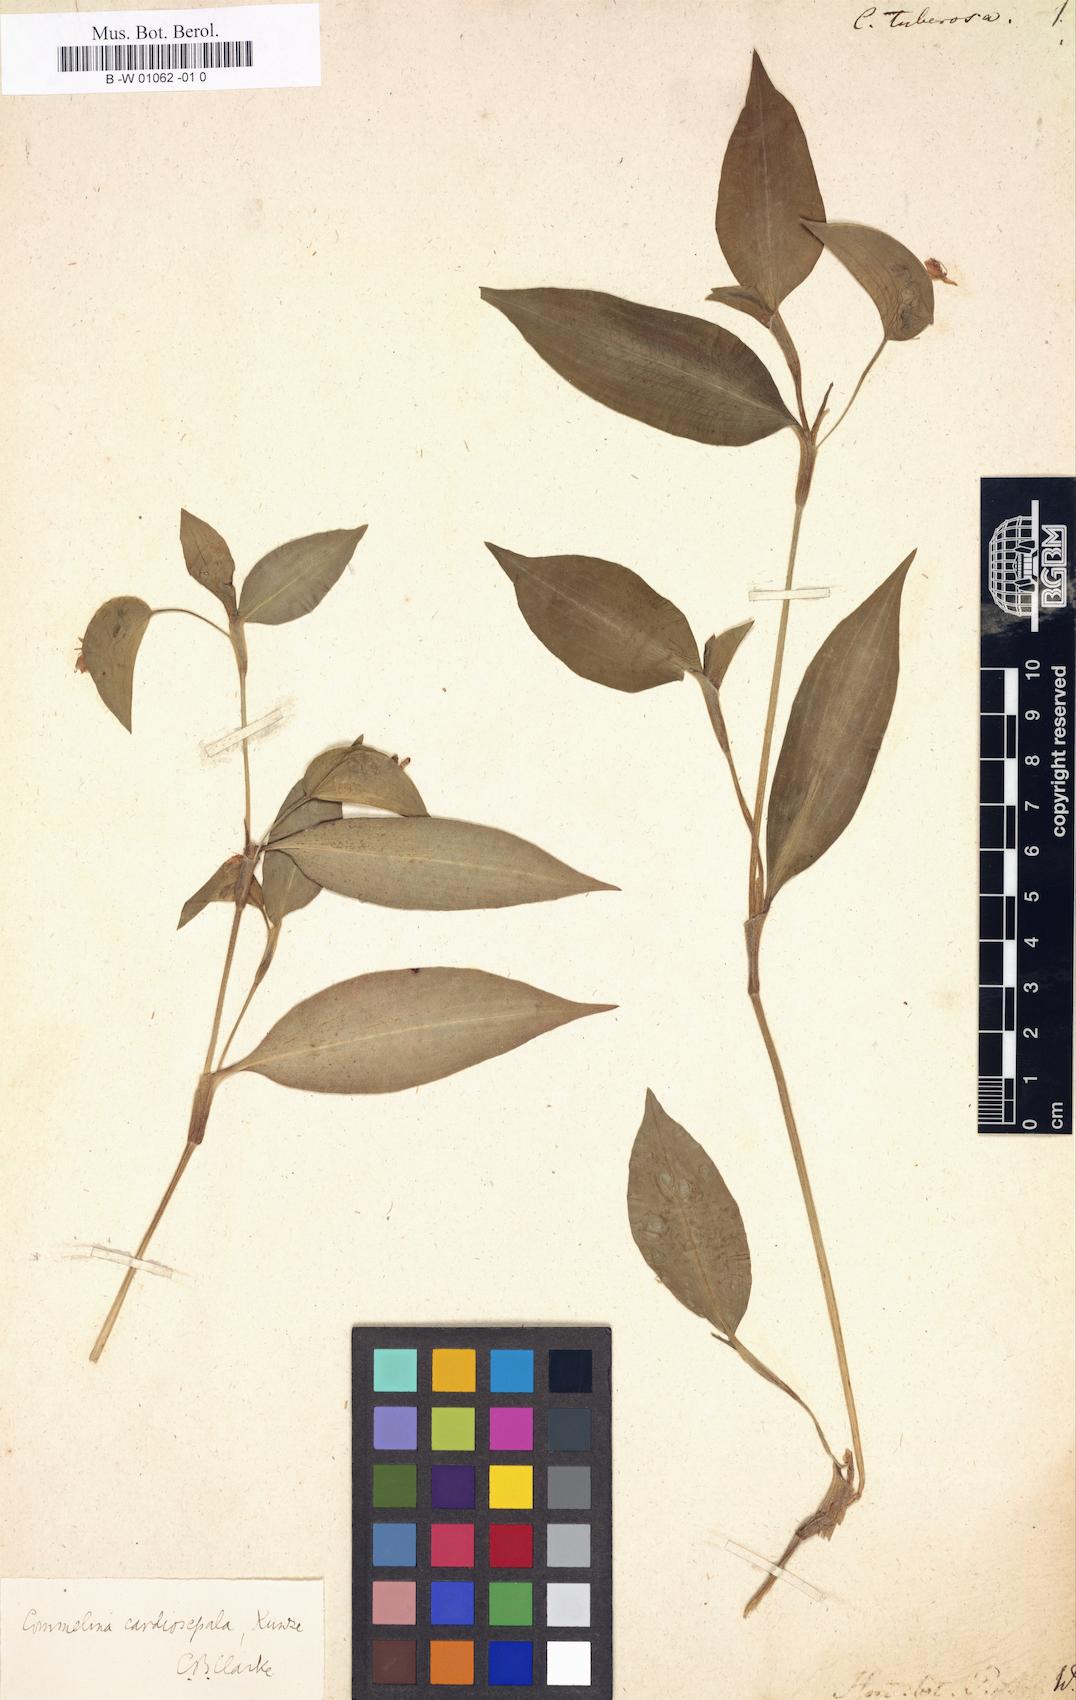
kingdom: Plantae
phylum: Tracheophyta
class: Liliopsida
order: Commelinales
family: Commelinaceae
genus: Commelina
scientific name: Commelina tuberosa
